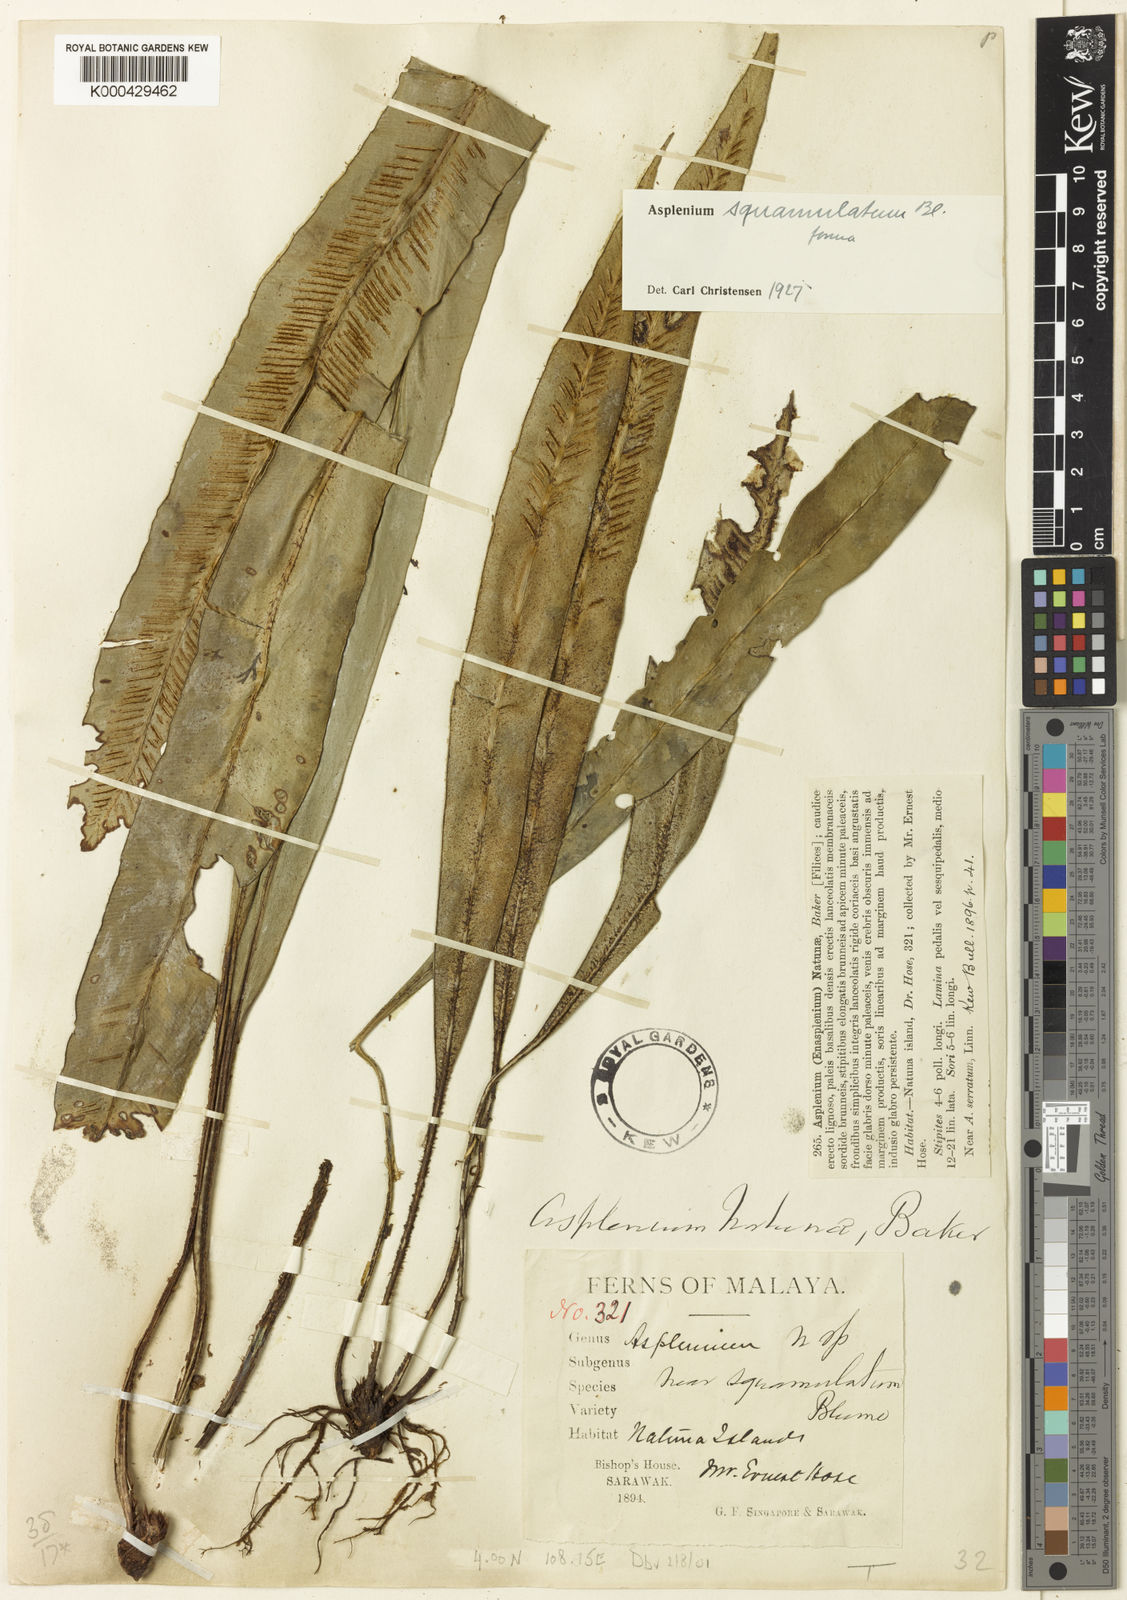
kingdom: Plantae
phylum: Tracheophyta
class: Polypodiopsida
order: Polypodiales
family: Aspleniaceae
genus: Asplenium
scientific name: Asplenium vittaeforme
